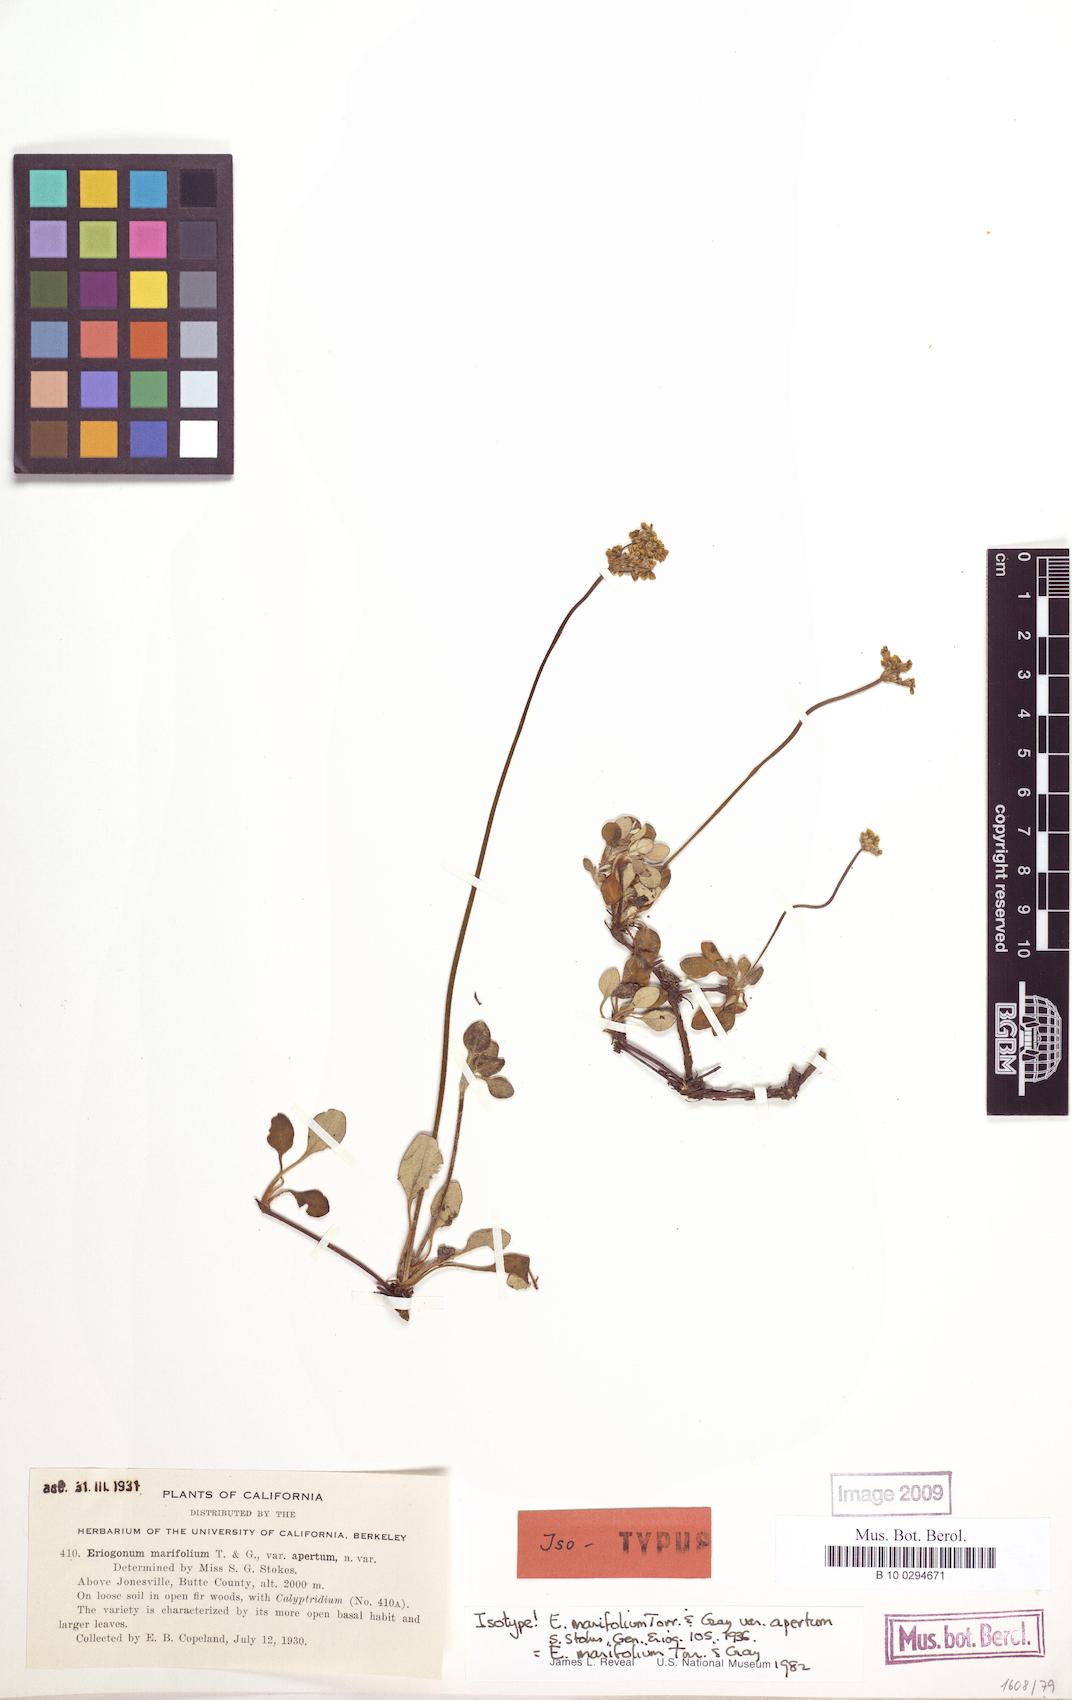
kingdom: Plantae
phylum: Tracheophyta
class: Magnoliopsida
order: Caryophyllales
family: Polygonaceae
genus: Eriogonum
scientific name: Eriogonum marifolium
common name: Marum-leaf wild buckwheat
